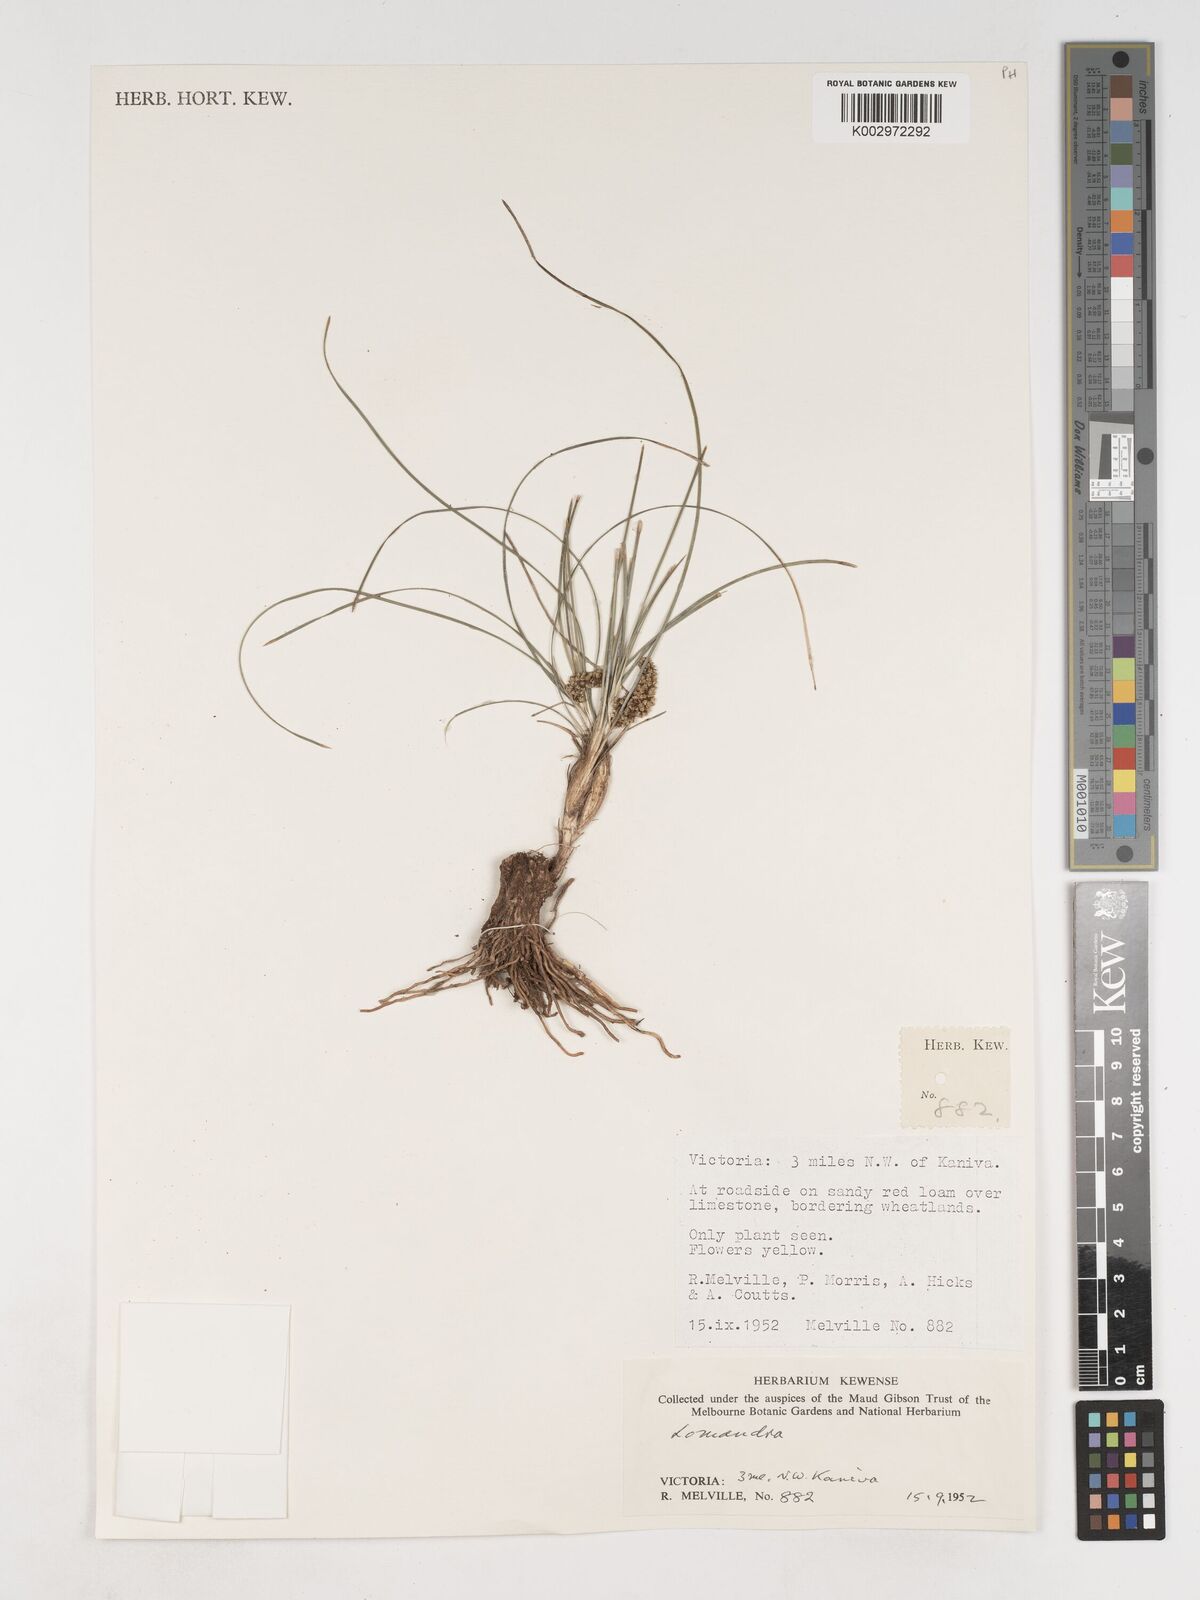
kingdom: Plantae
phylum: Tracheophyta
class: Liliopsida
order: Asparagales
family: Asparagaceae
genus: Lomandra
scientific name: Lomandra
